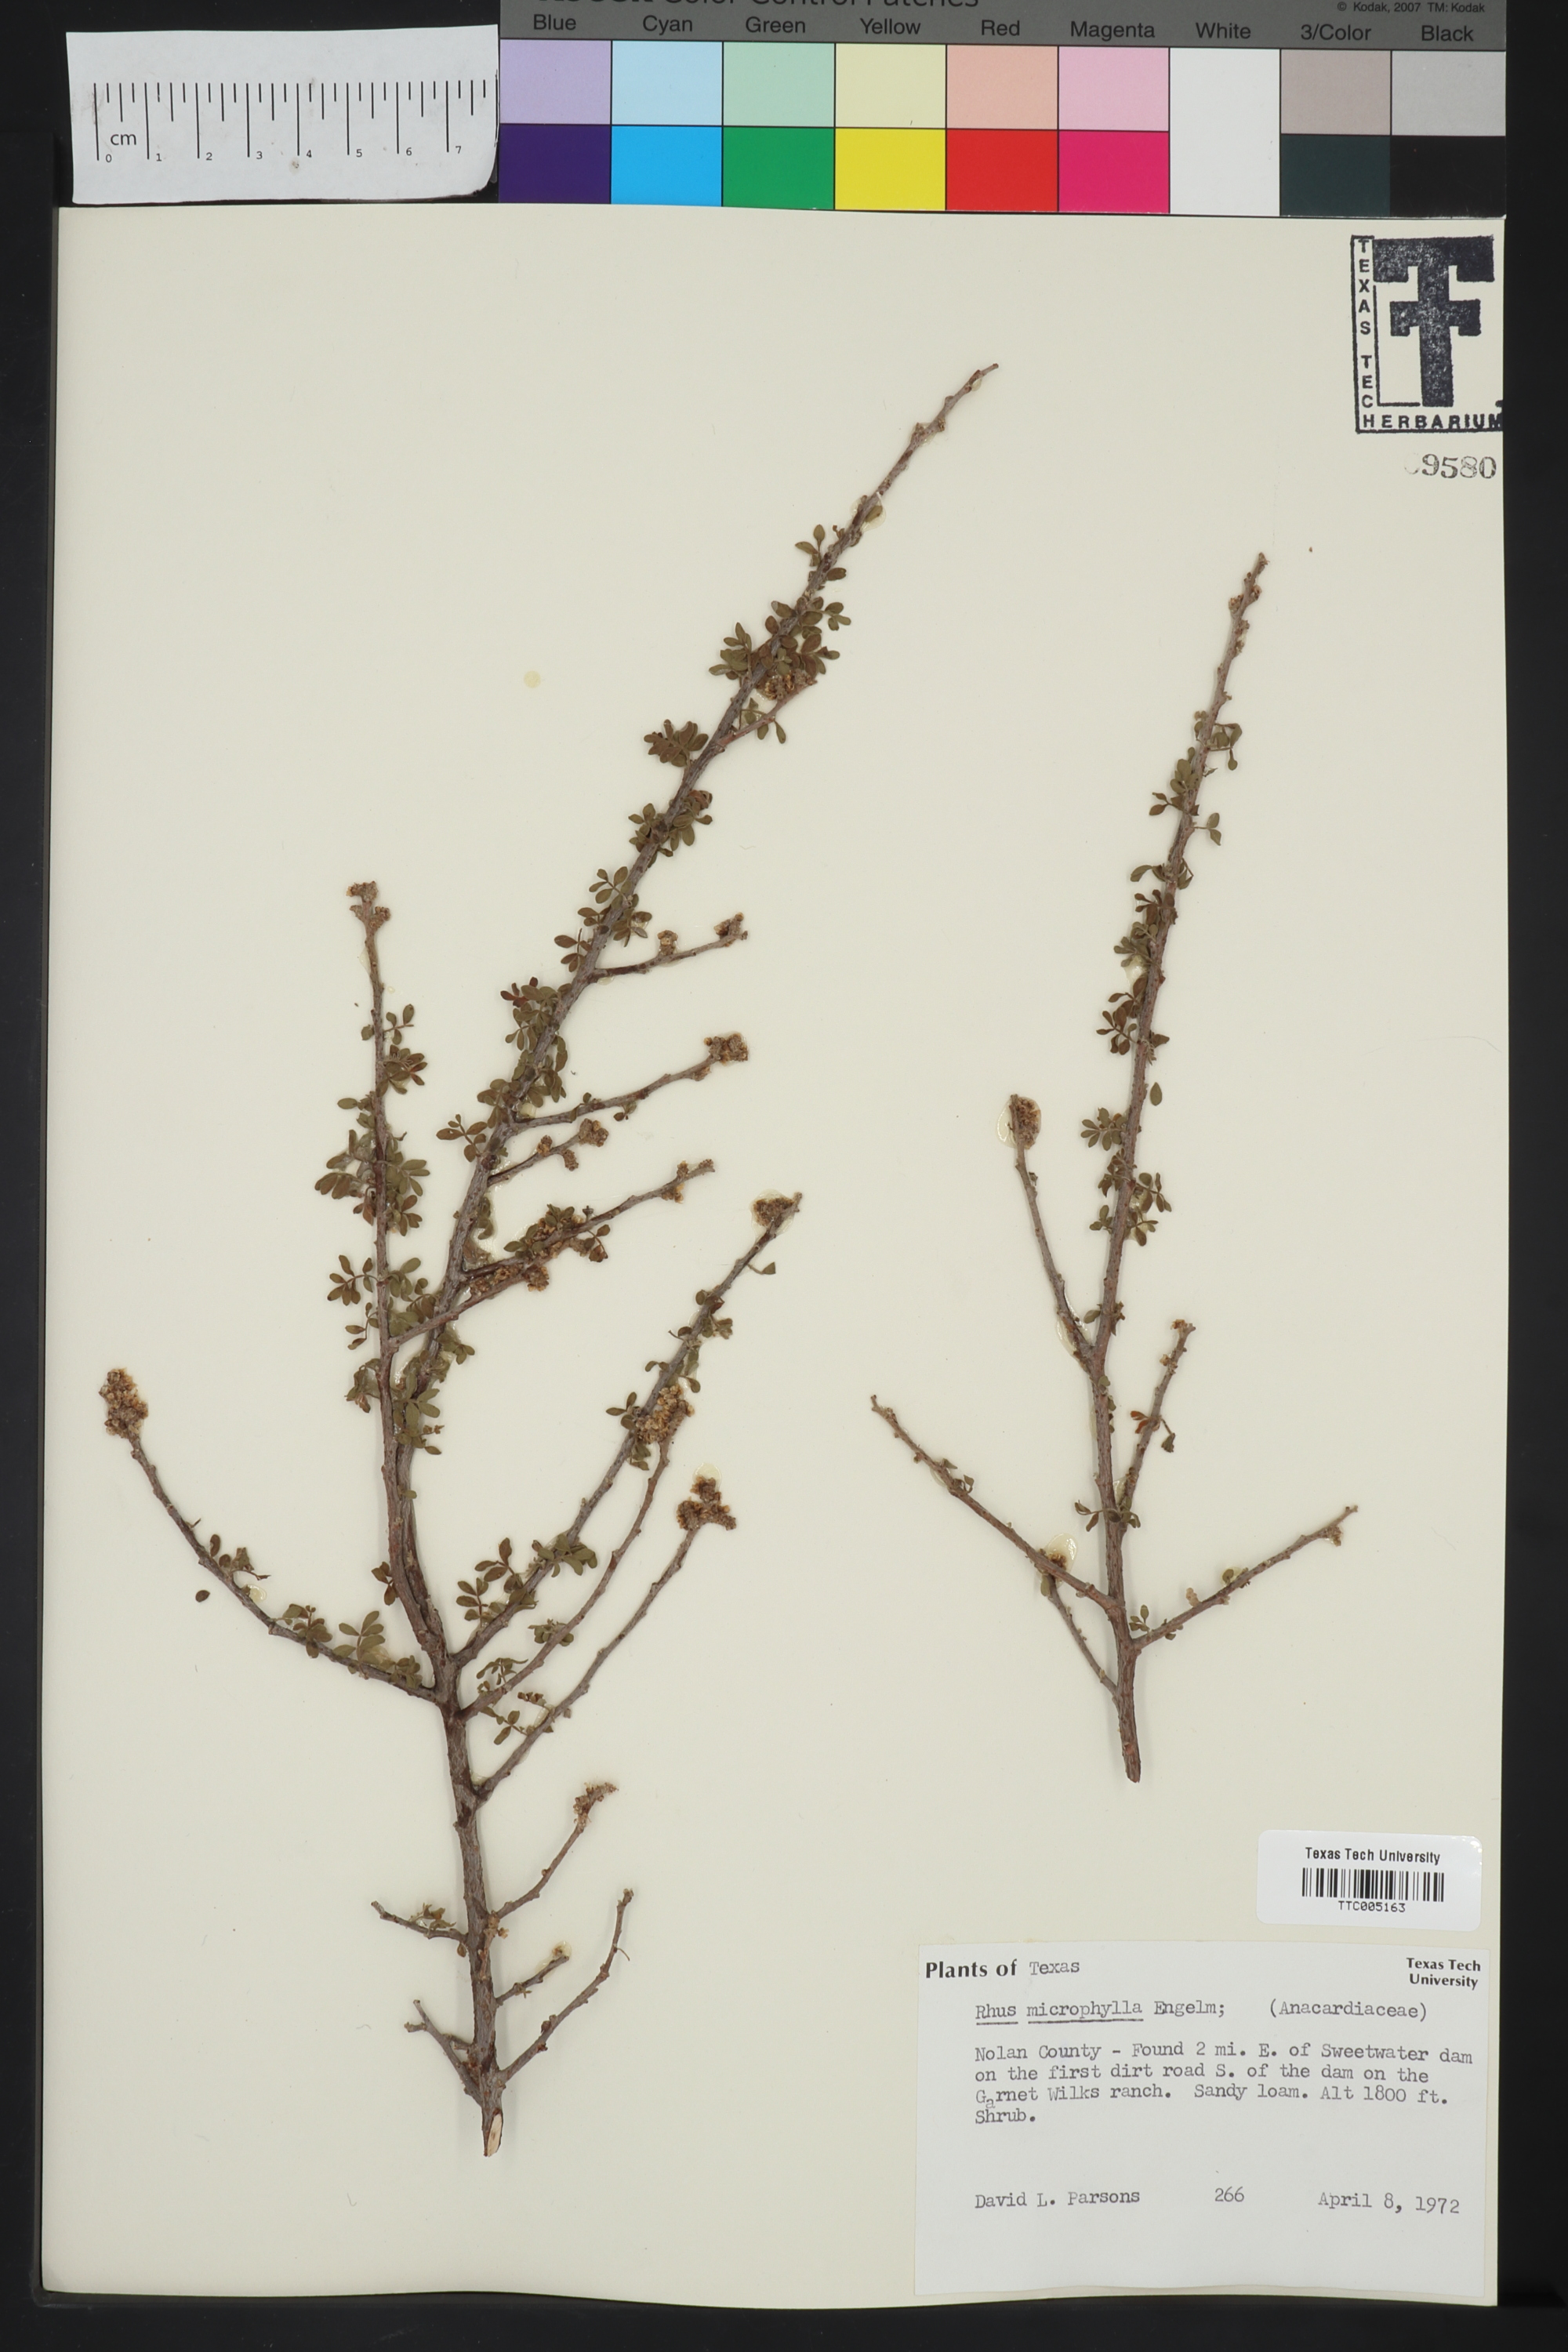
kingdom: Plantae
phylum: Tracheophyta
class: Magnoliopsida
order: Sapindales
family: Anacardiaceae
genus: Rhus
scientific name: Rhus microphylla
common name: Desert sumac
